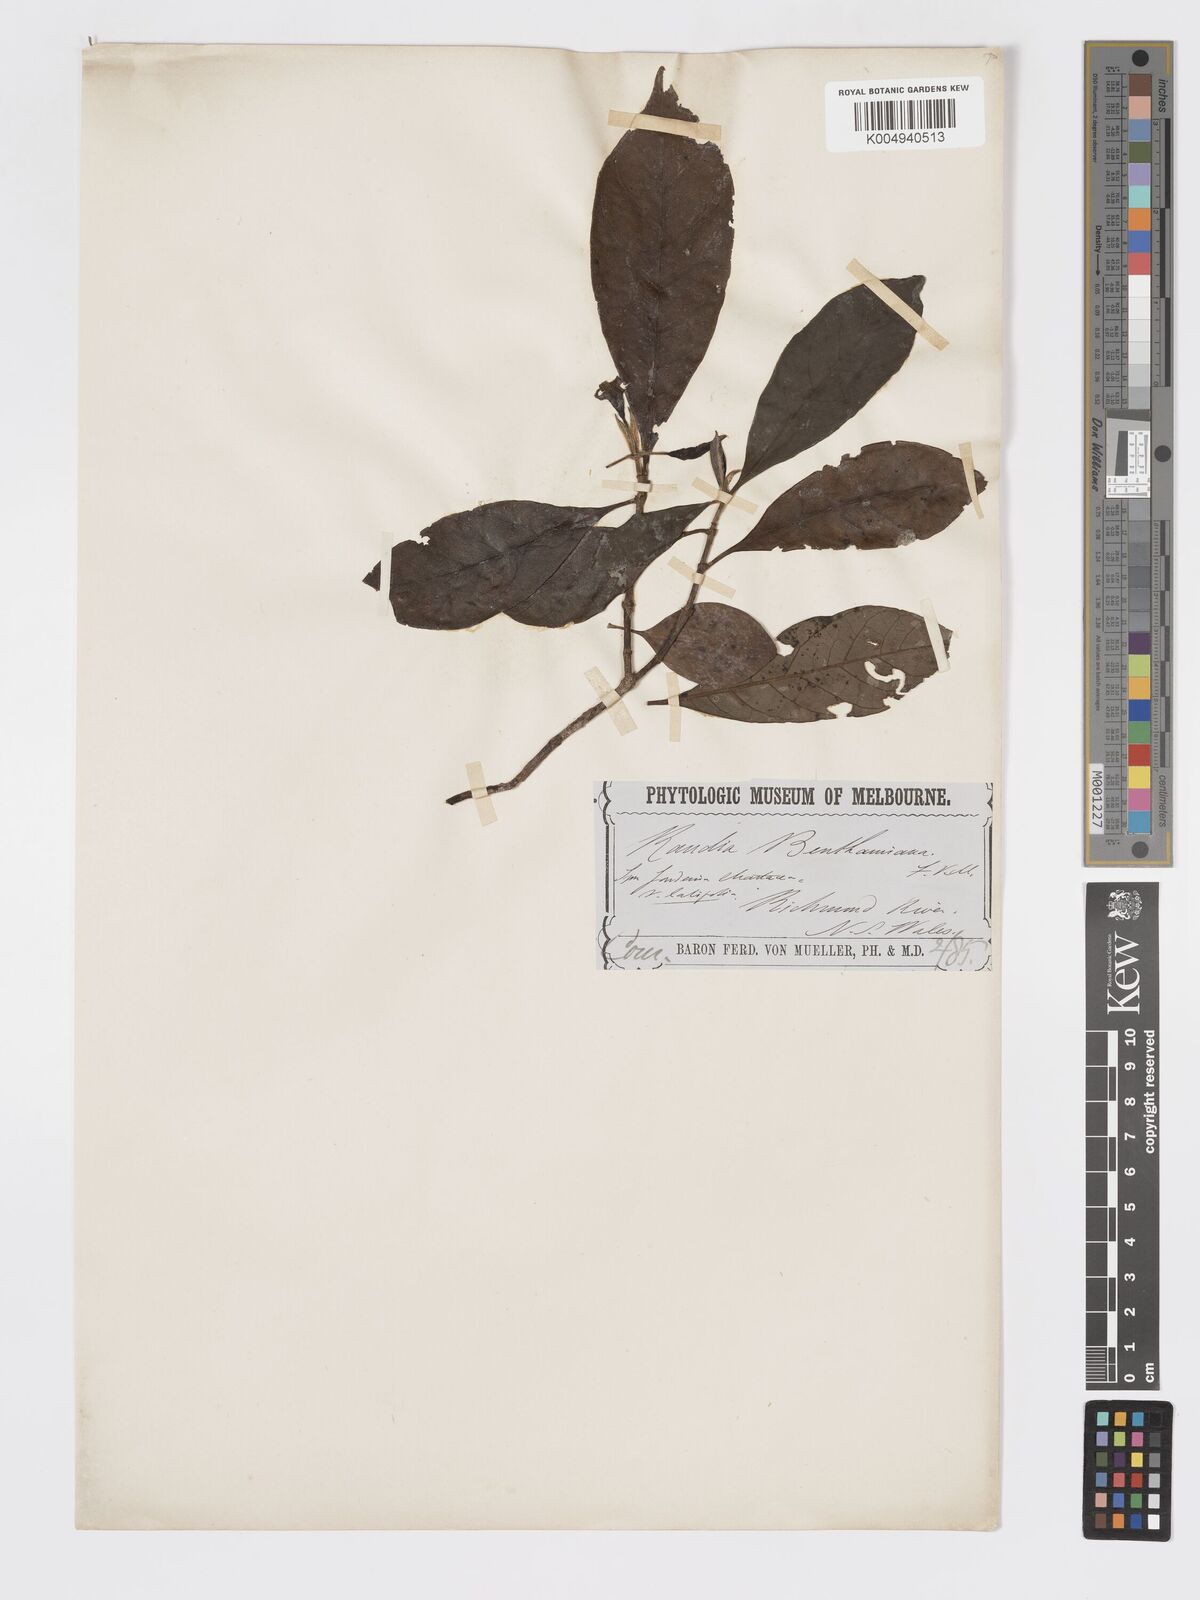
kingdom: Plantae
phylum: Tracheophyta
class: Magnoliopsida
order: Gentianales
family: Rubiaceae
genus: Atractocarpus
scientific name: Atractocarpus benthamianus
